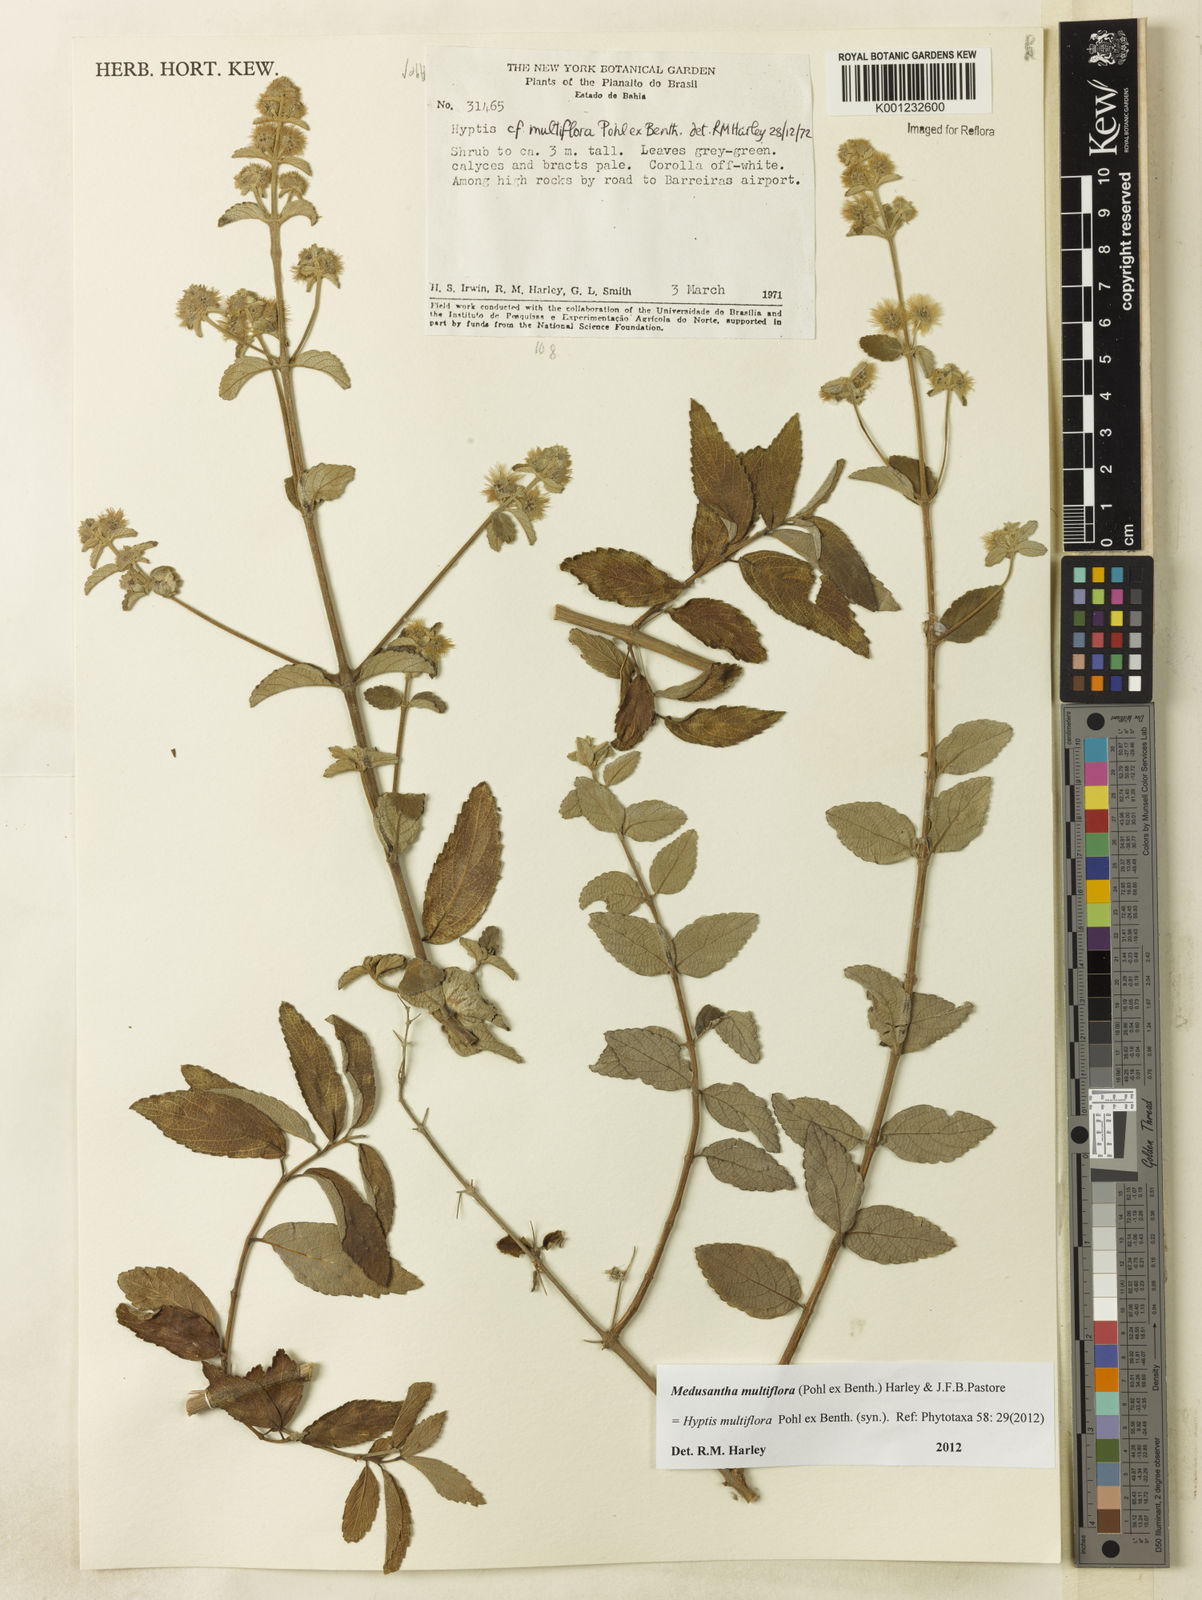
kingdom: Plantae
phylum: Tracheophyta
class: Magnoliopsida
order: Lamiales
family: Lamiaceae
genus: Medusantha
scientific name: Medusantha multiflora
